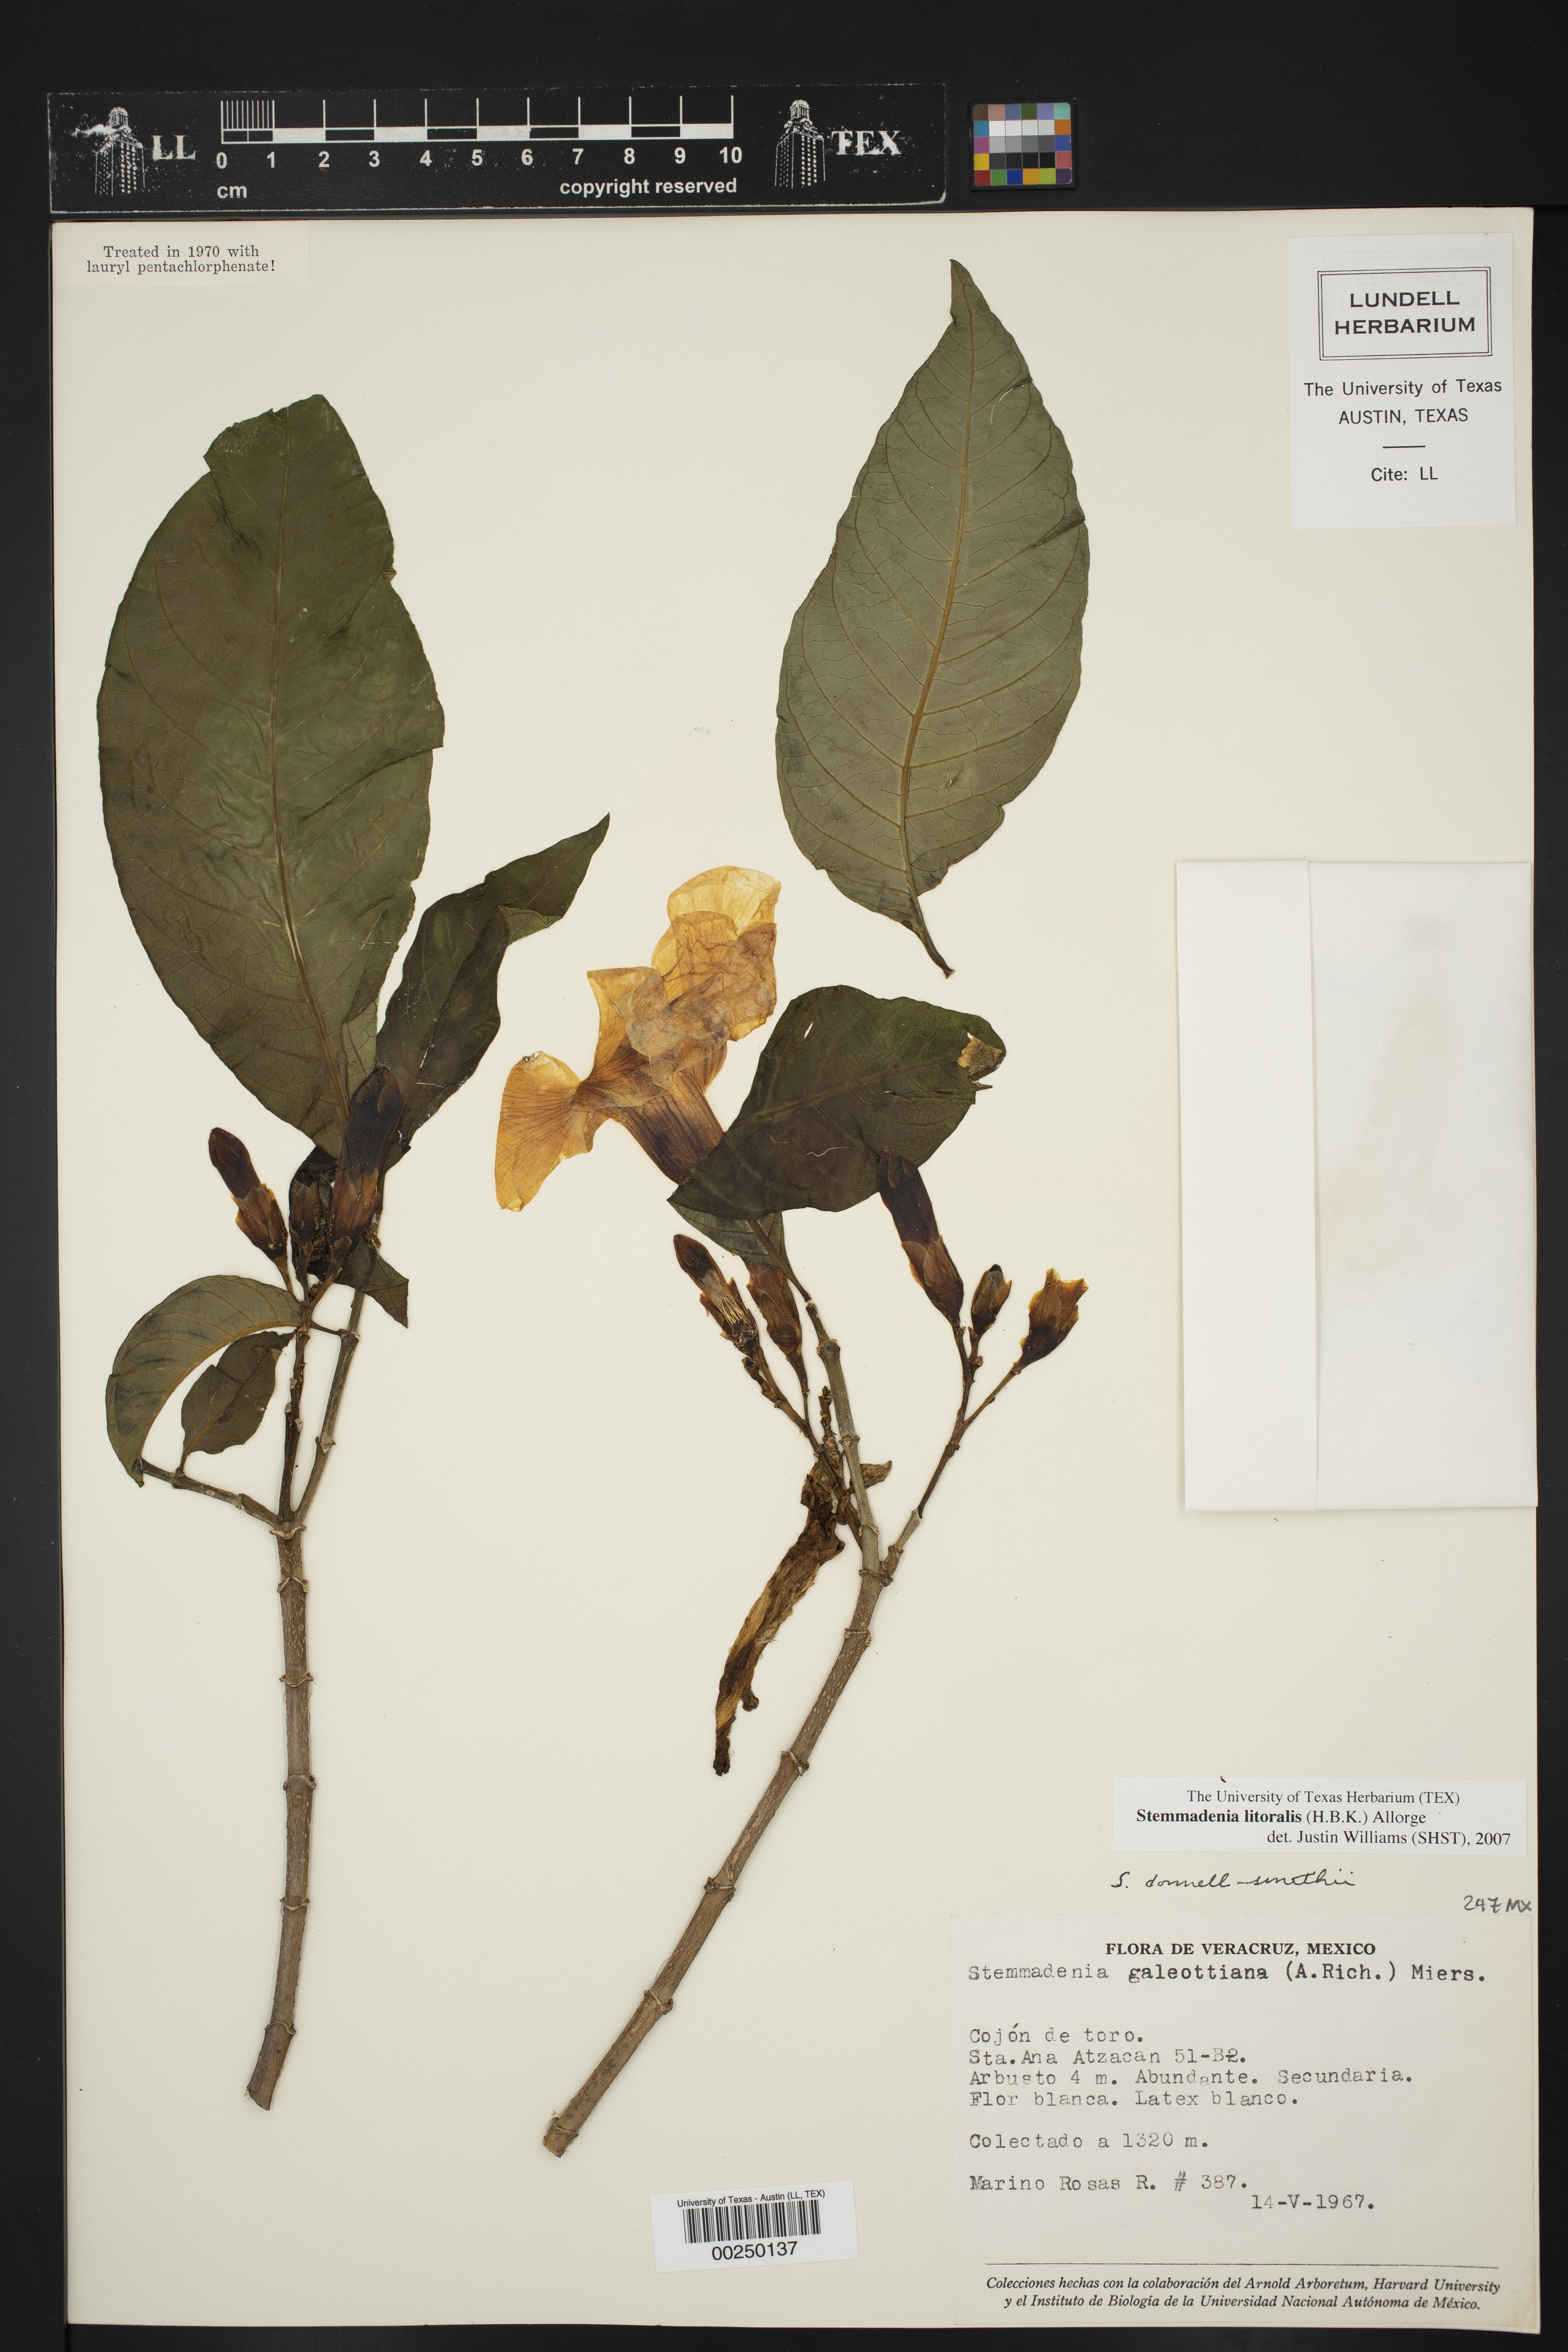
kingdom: Plantae
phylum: Tracheophyta
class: Magnoliopsida
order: Gentianales
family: Apocynaceae
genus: Tabernaemontana
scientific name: Tabernaemontana litoralis
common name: Milkwood
